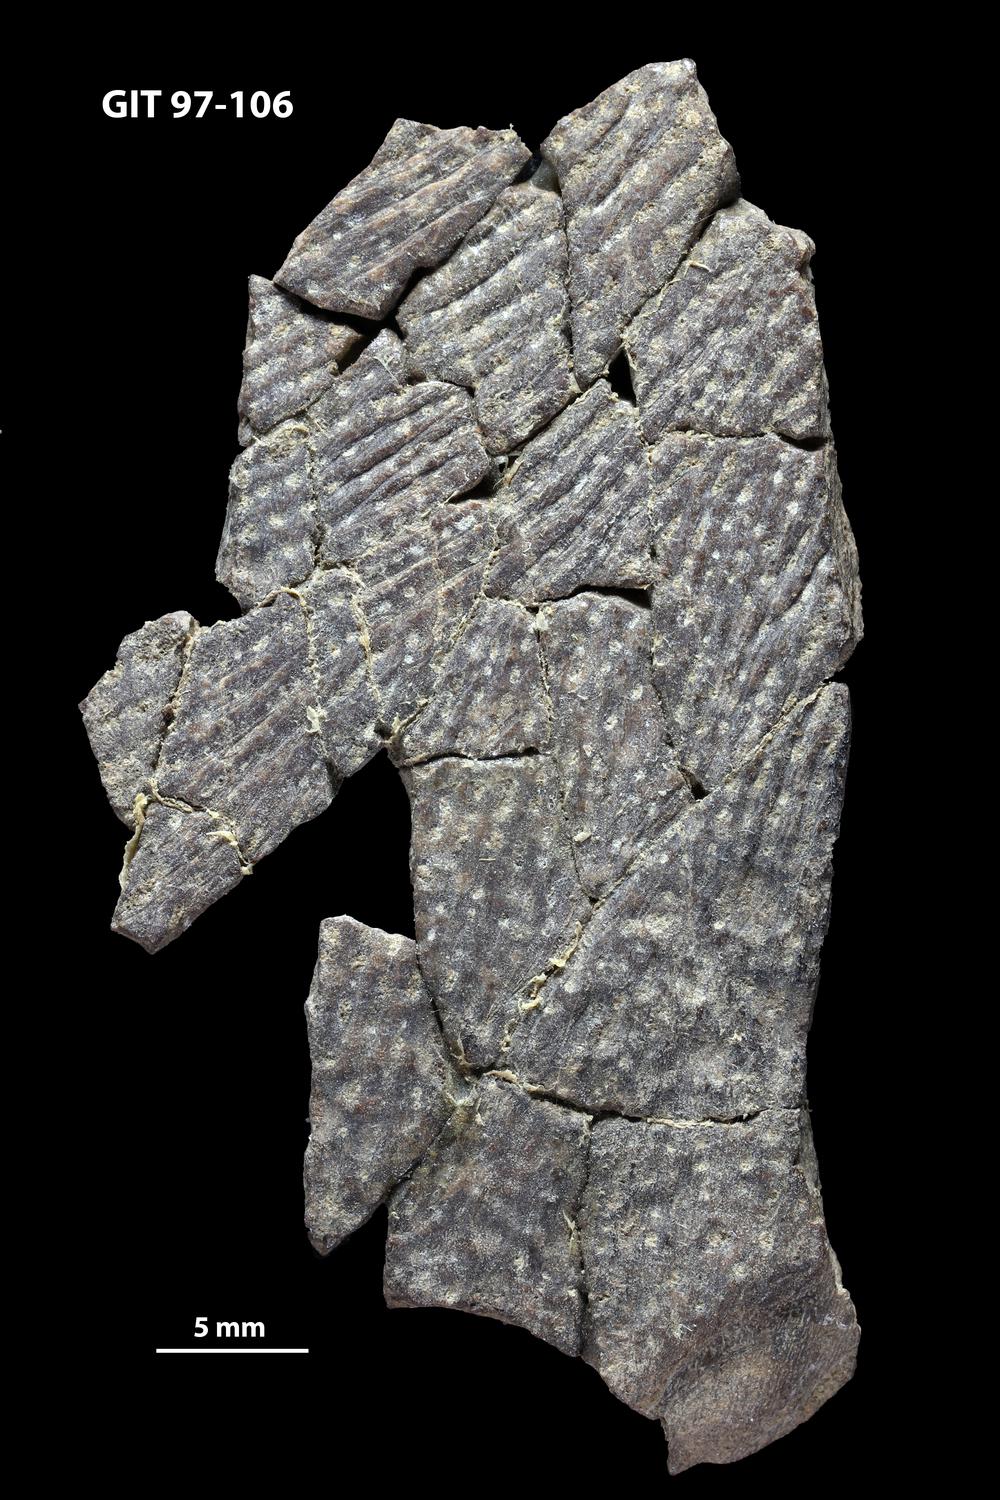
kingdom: Animalia
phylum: Chordata
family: Holonematidae
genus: Holonema
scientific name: Holonema
